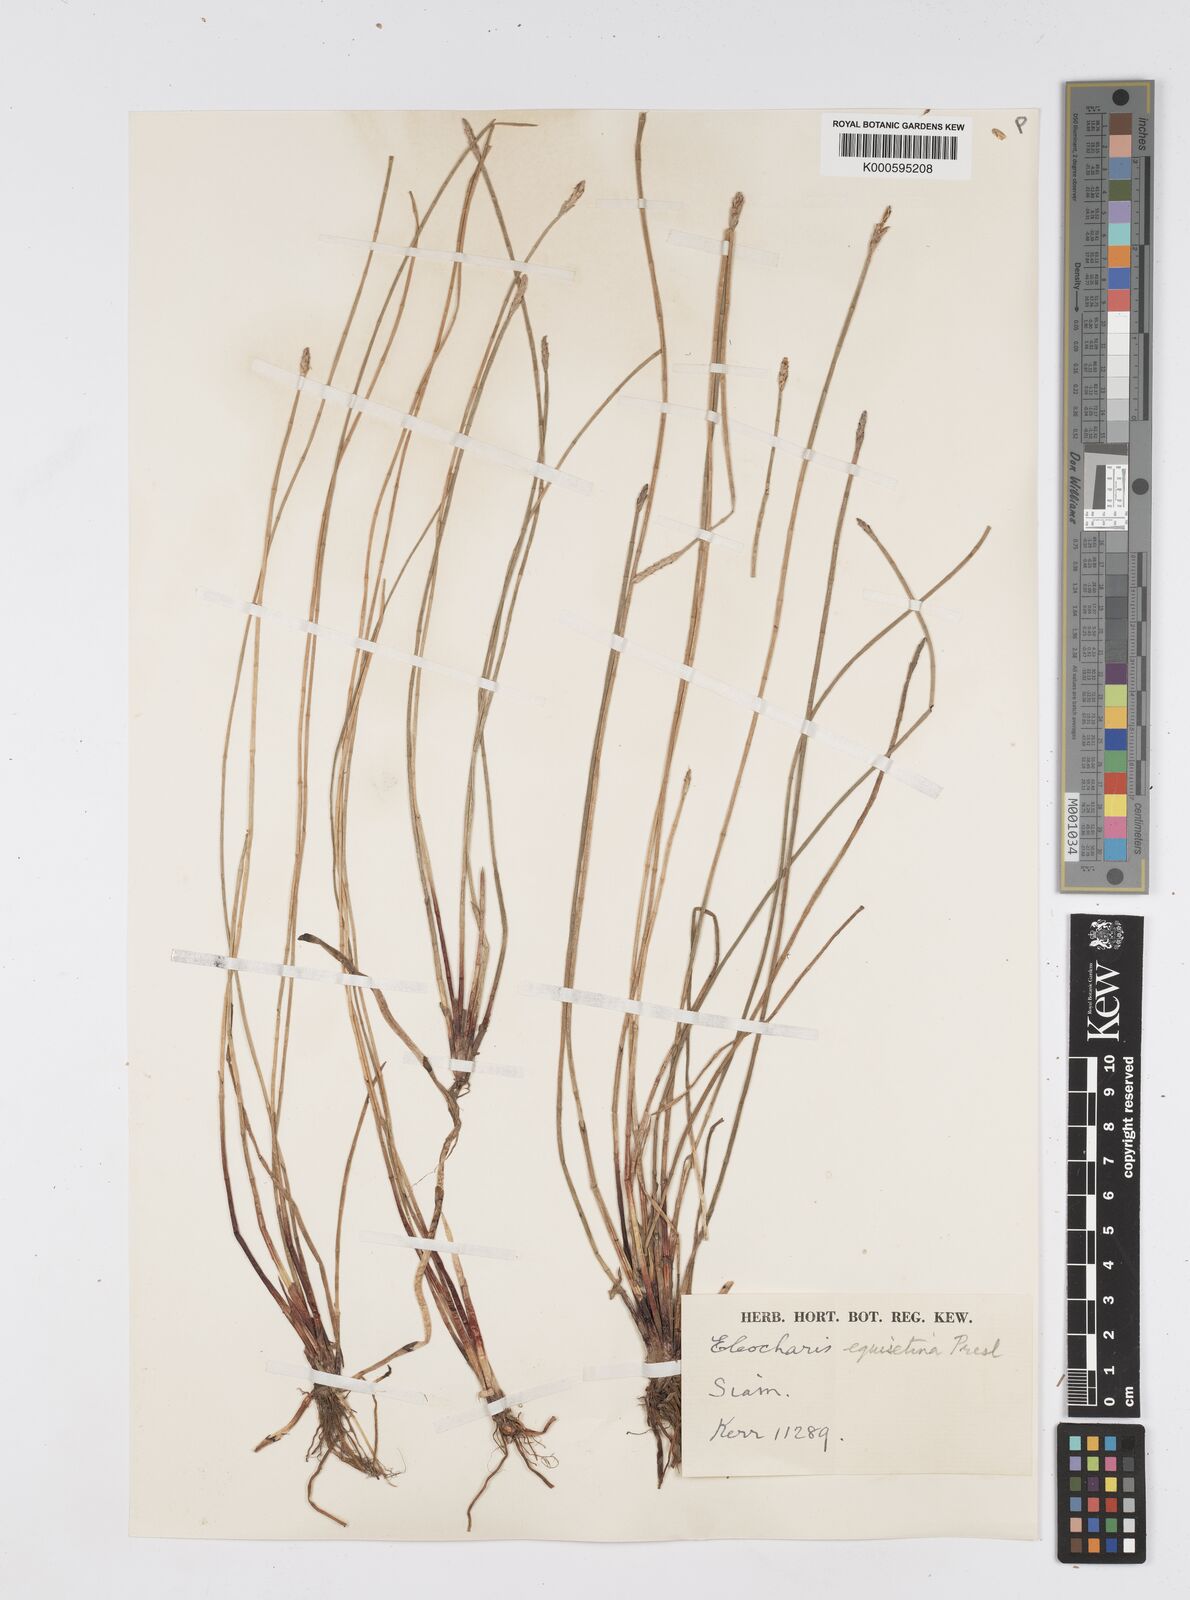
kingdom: Plantae
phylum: Tracheophyta
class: Liliopsida
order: Poales
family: Cyperaceae
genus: Eleocharis
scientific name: Eleocharis dulcis
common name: Chinese water chestnut
